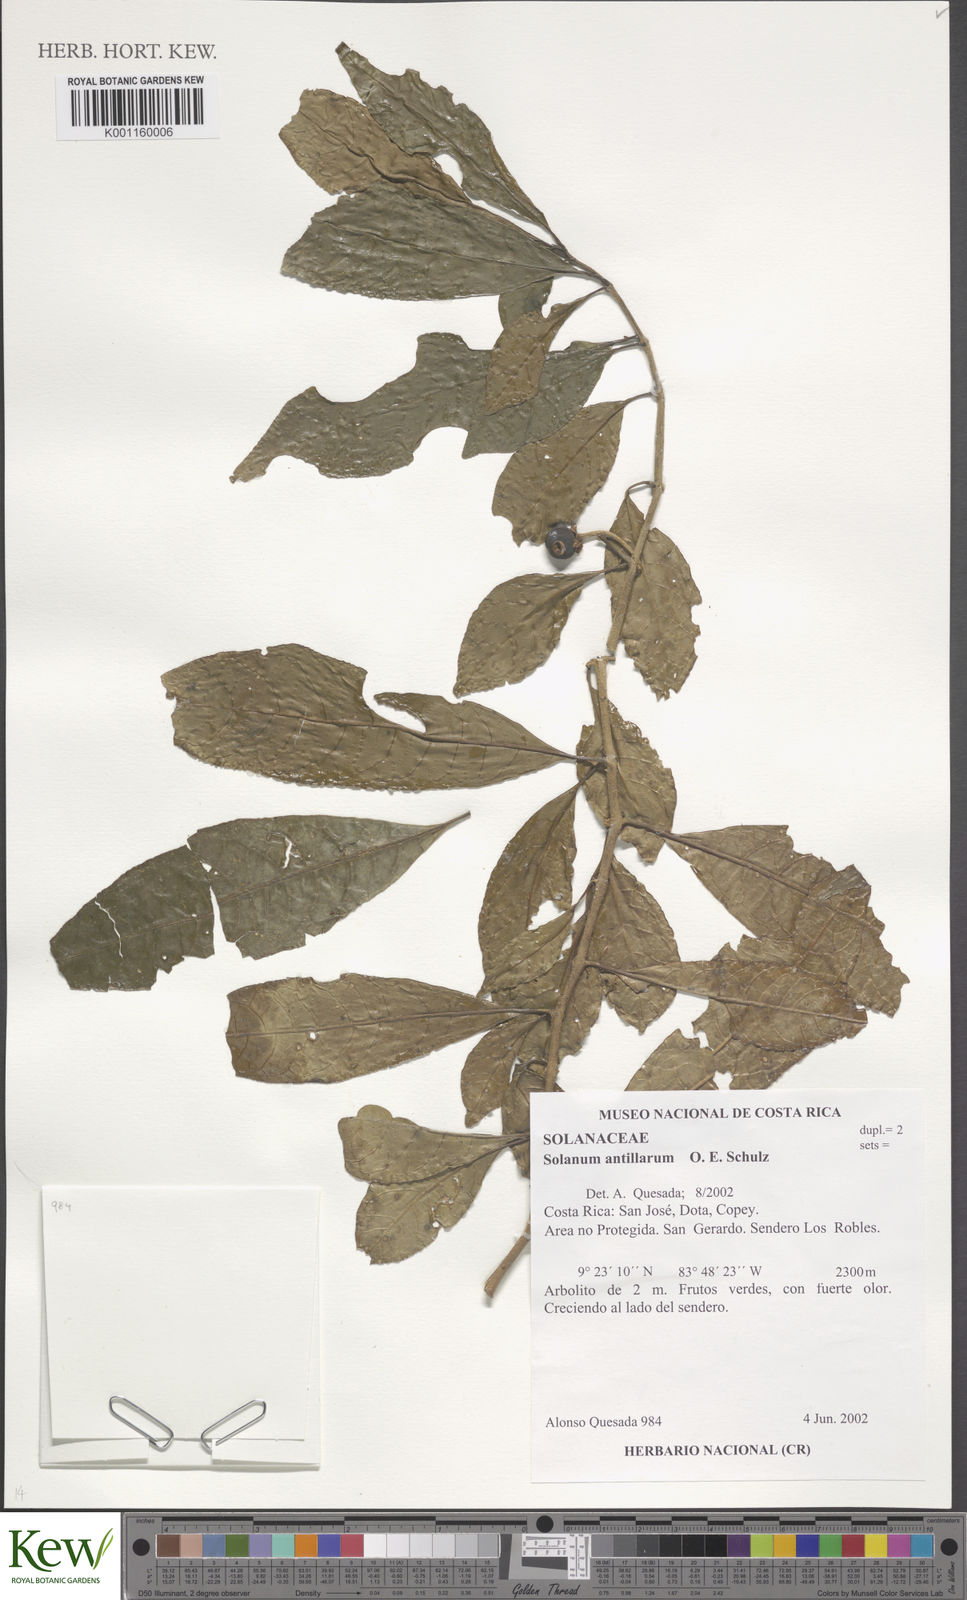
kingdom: Plantae
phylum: Tracheophyta
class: Magnoliopsida
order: Solanales
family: Solanaceae
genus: Solanum
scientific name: Solanum nudum
